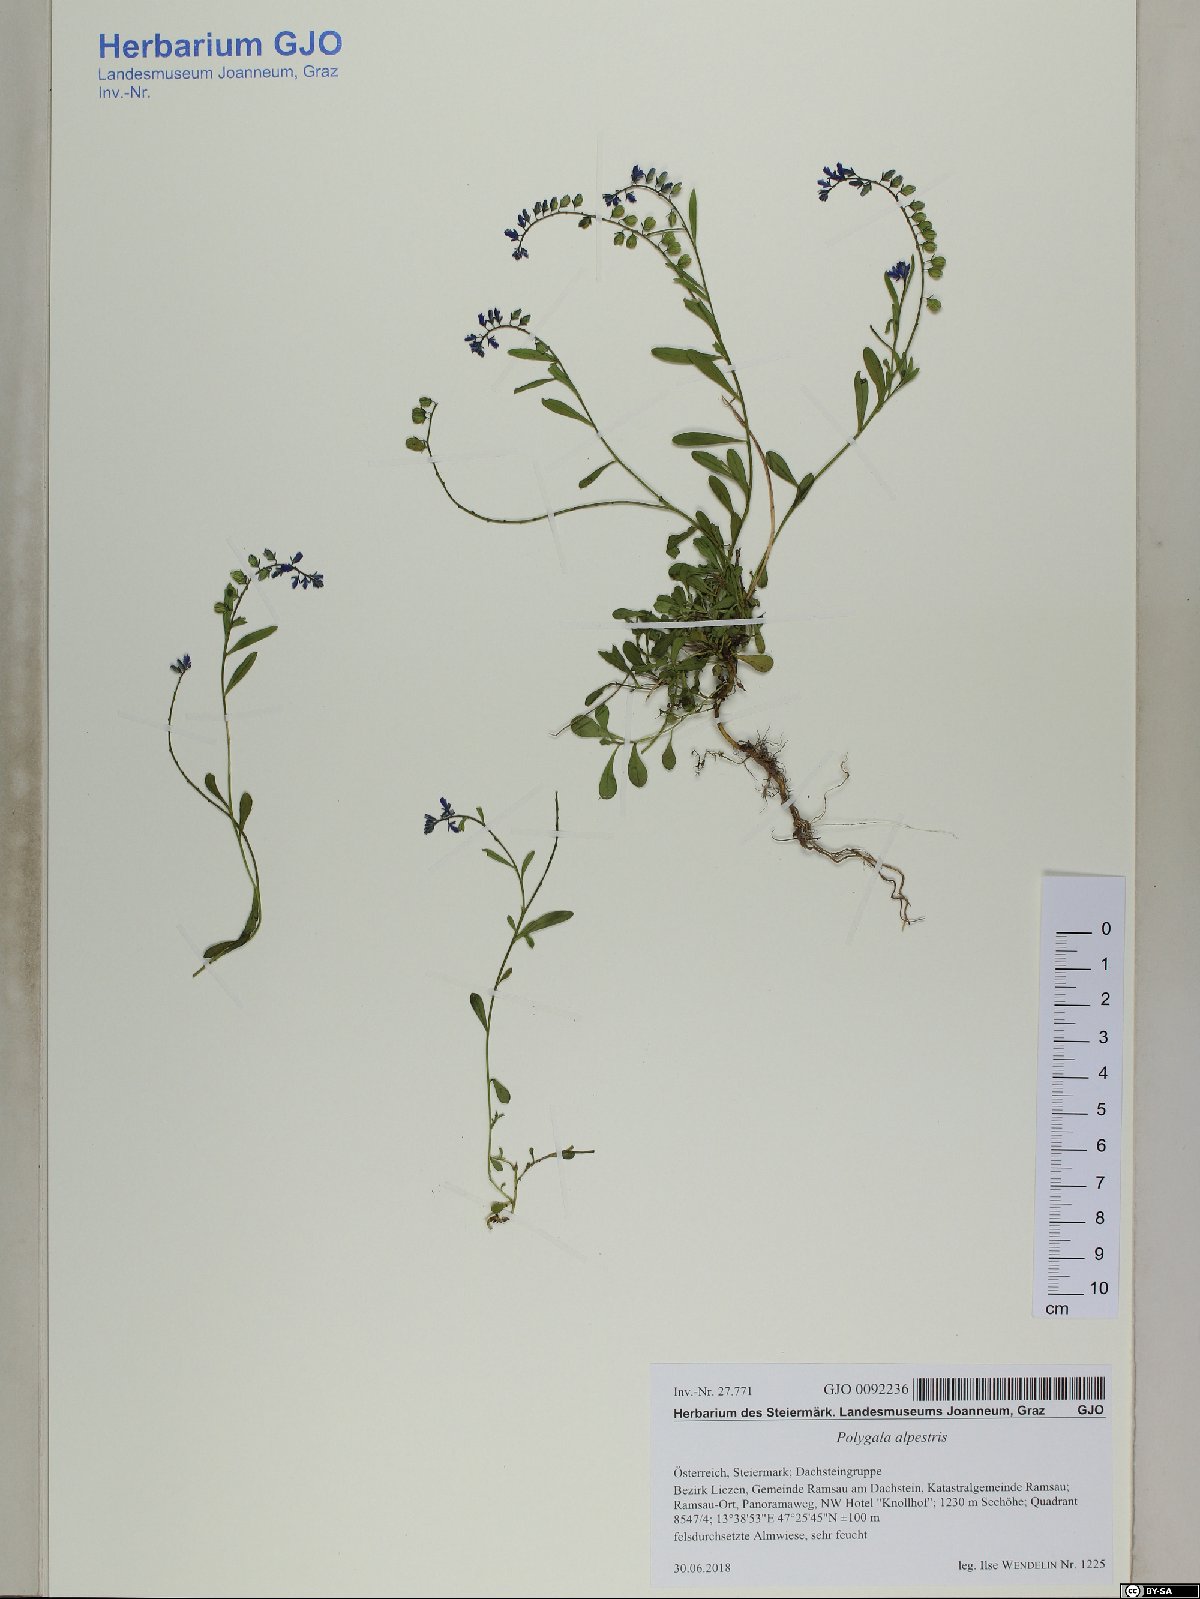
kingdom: Plantae
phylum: Tracheophyta
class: Magnoliopsida
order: Fabales
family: Polygalaceae
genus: Polygala
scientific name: Polygala alpestris
